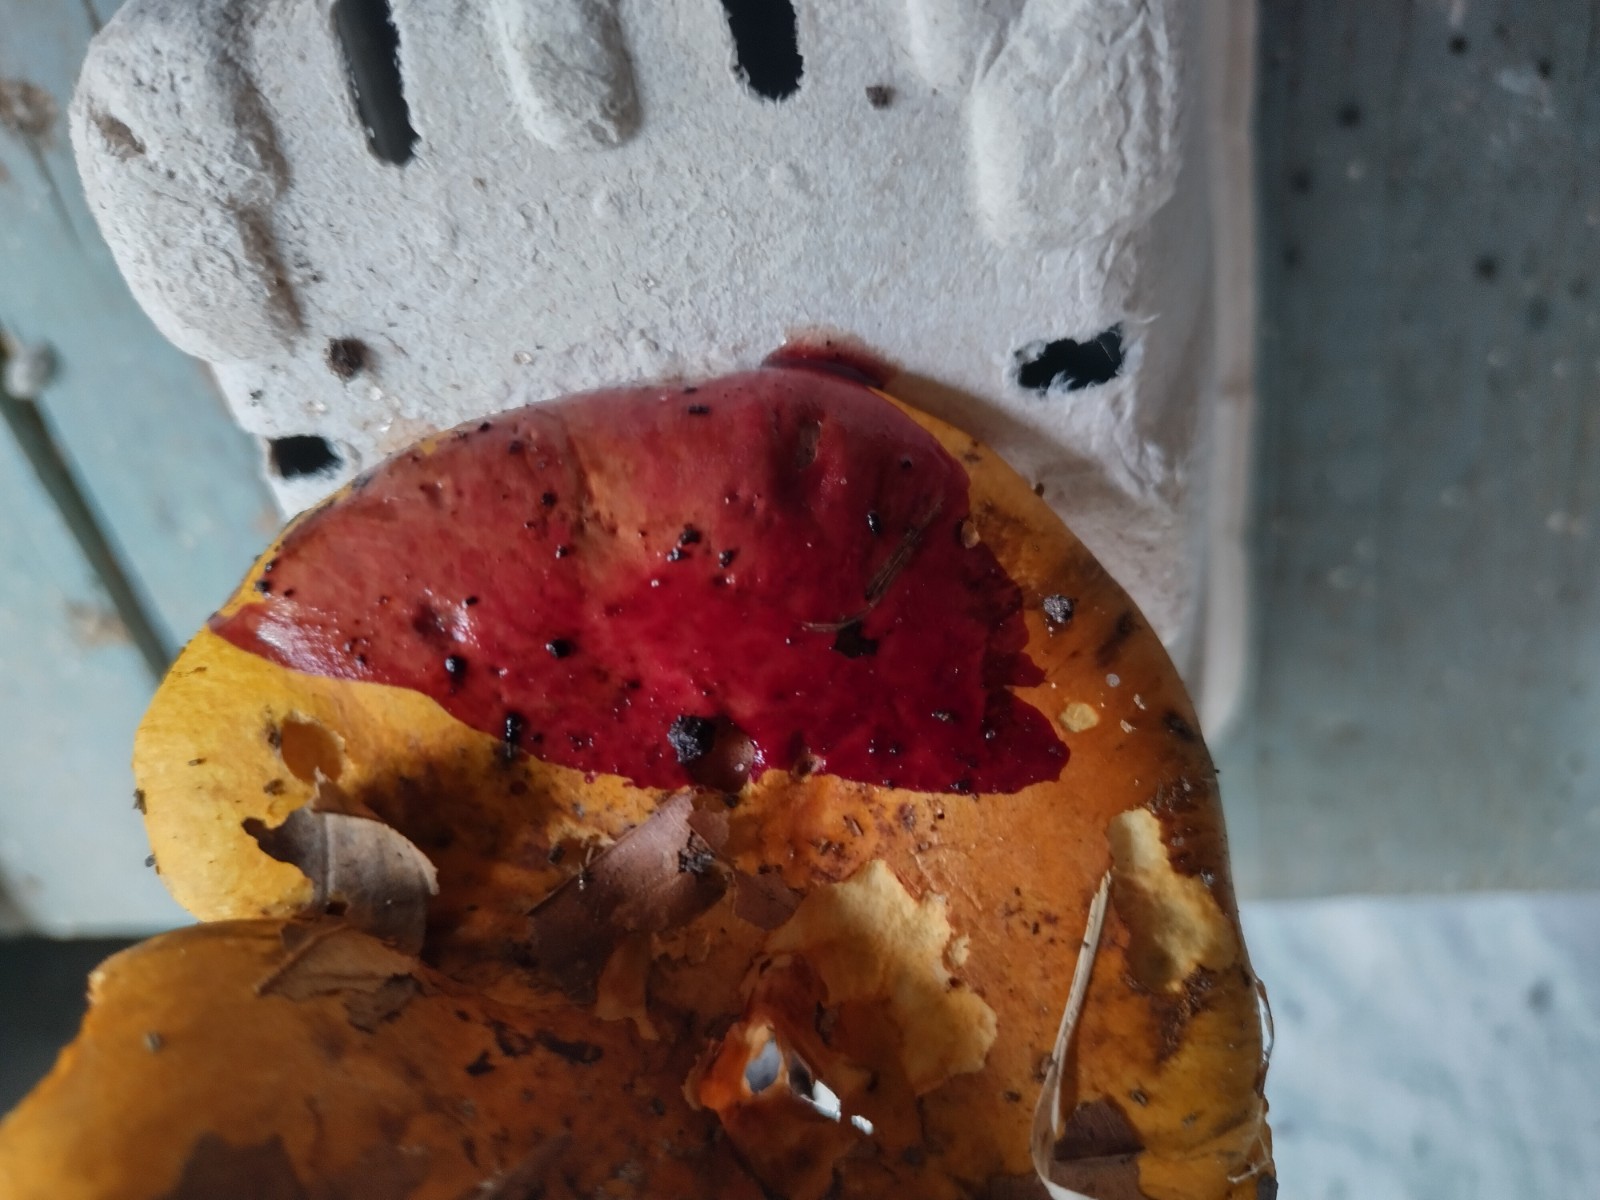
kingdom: Fungi
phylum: Basidiomycota
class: Agaricomycetes
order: Agaricales
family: Cortinariaceae
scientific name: Cortinariaceae
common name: slørhatfamilien
